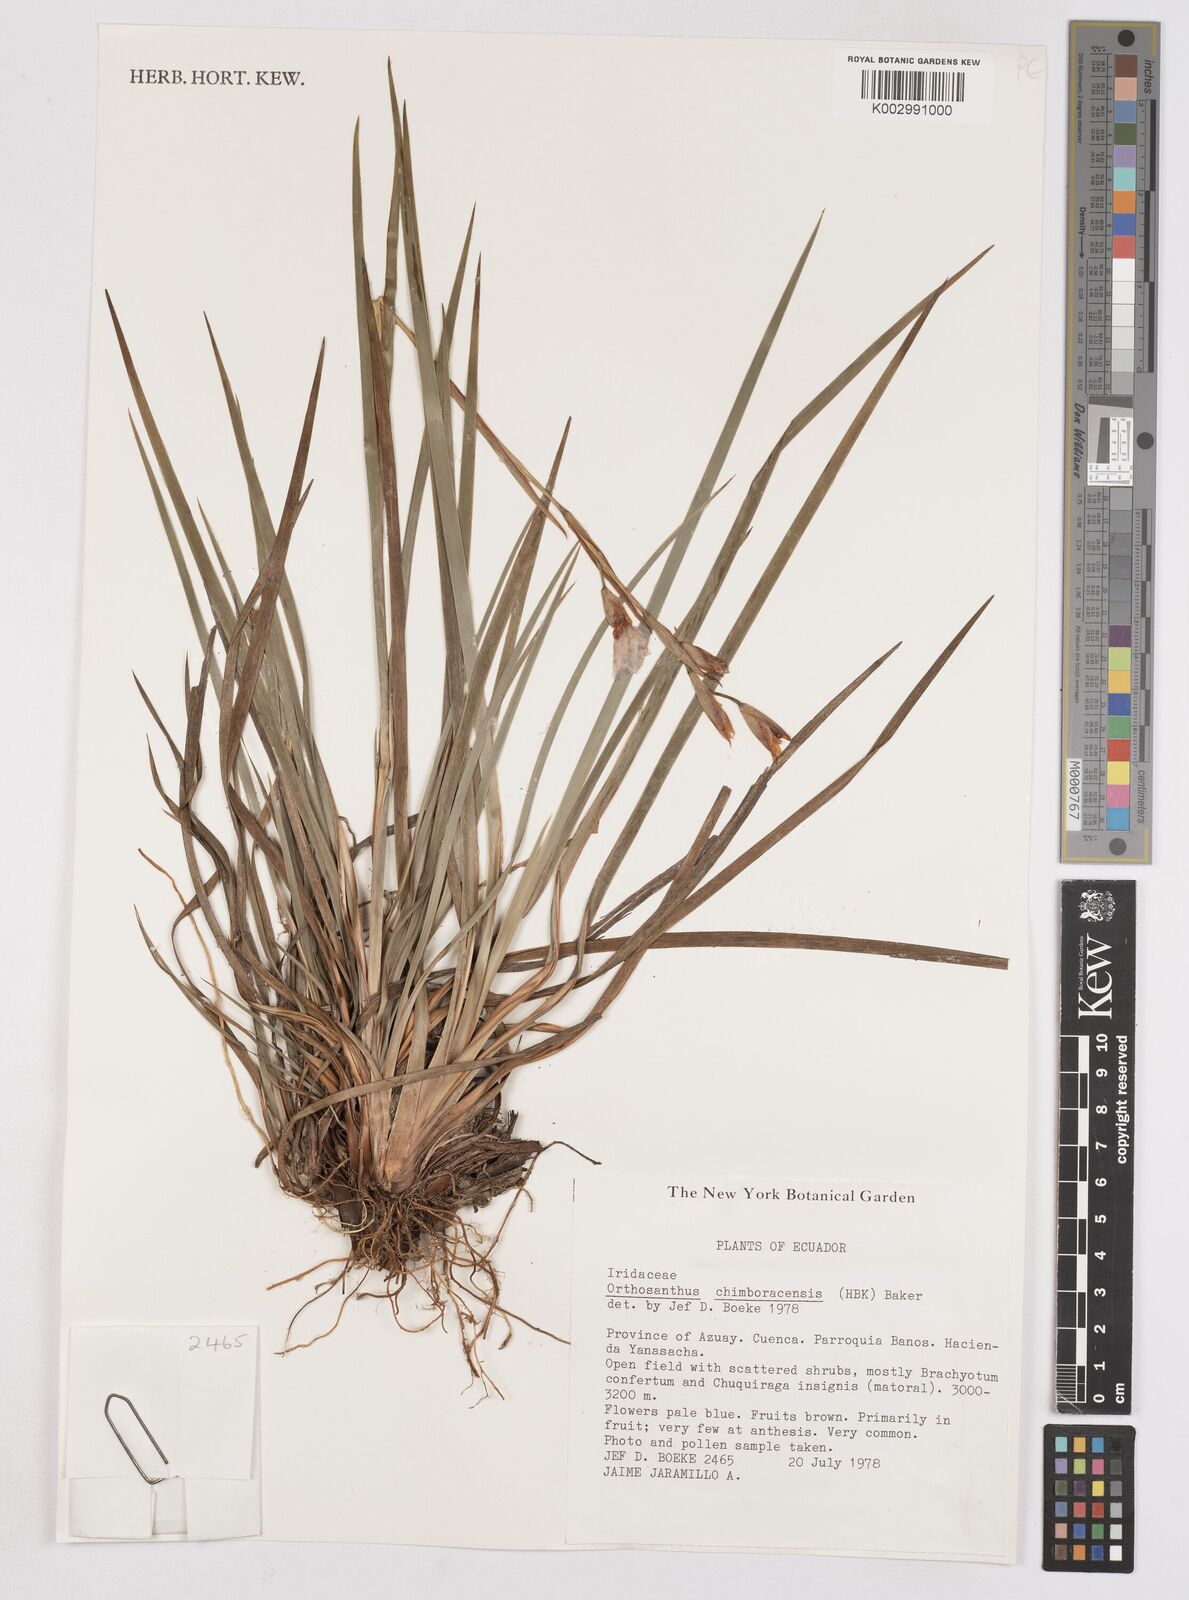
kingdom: Plantae
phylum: Tracheophyta
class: Liliopsida
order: Asparagales
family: Iridaceae
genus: Orthrosanthus
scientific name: Orthrosanthus chimboracensis
